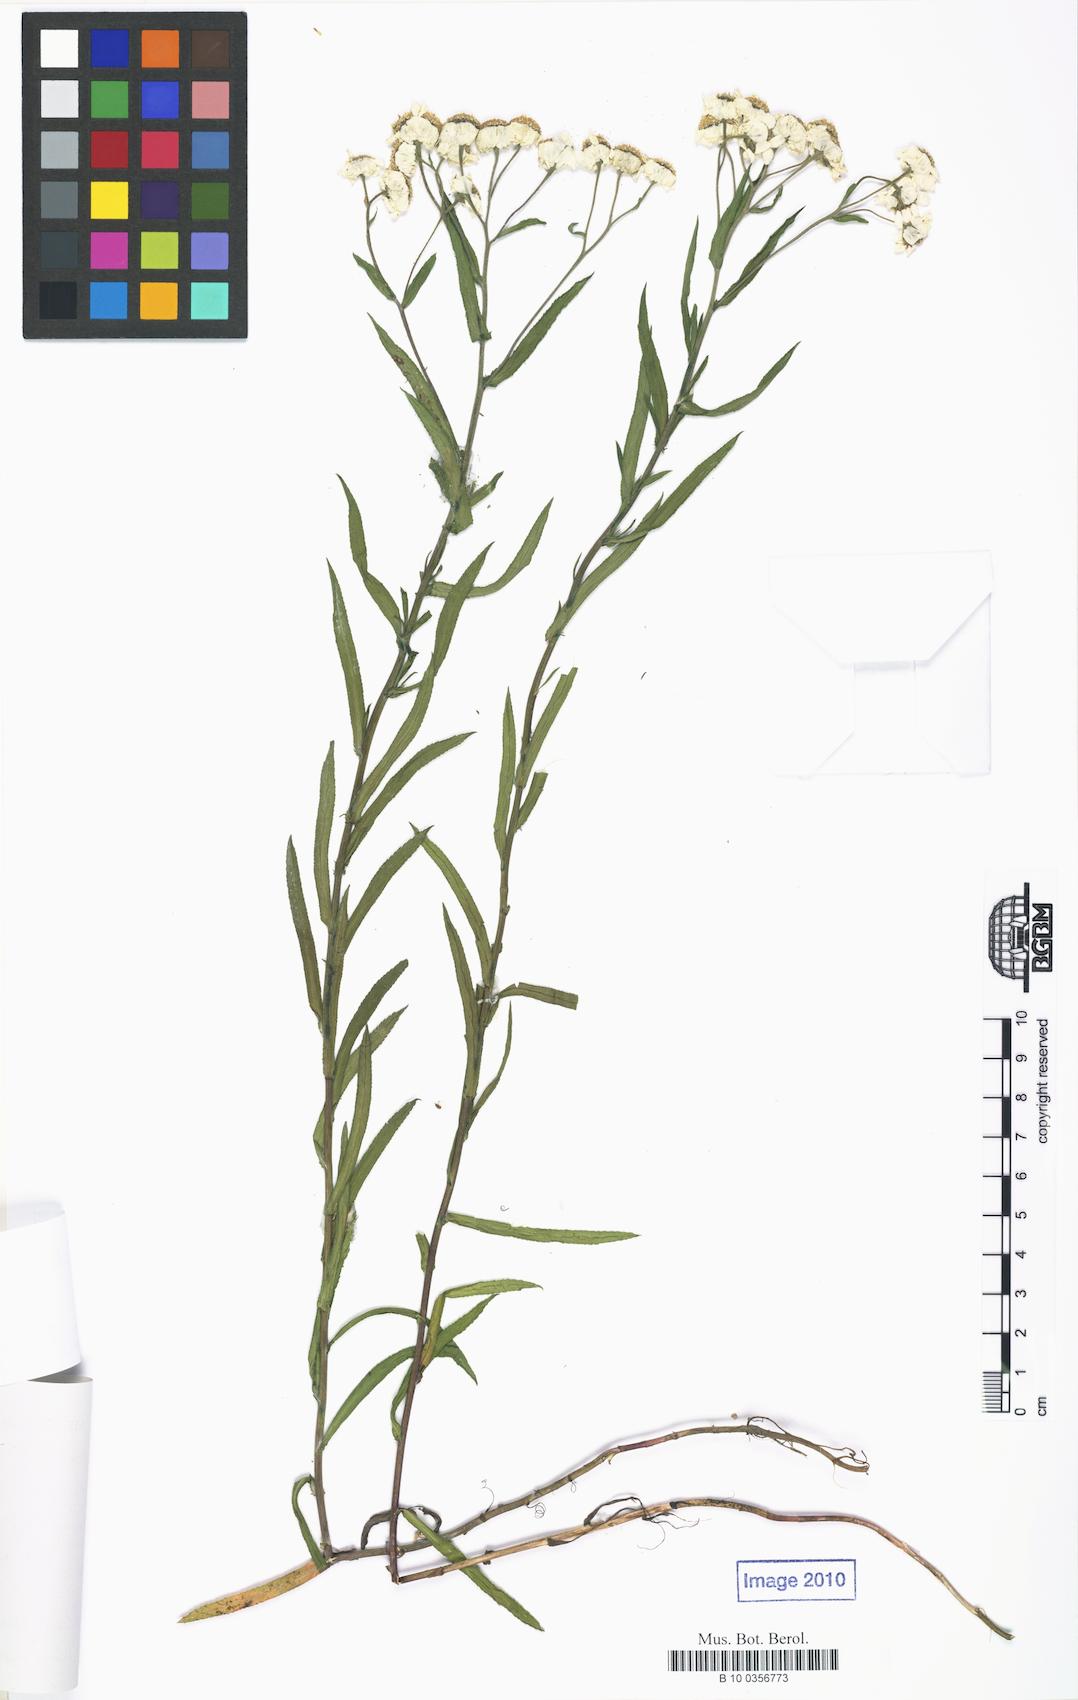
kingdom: Plantae
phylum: Tracheophyta
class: Magnoliopsida
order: Asterales
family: Asteraceae
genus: Achillea
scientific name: Achillea ptarmica
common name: Sneezeweed
